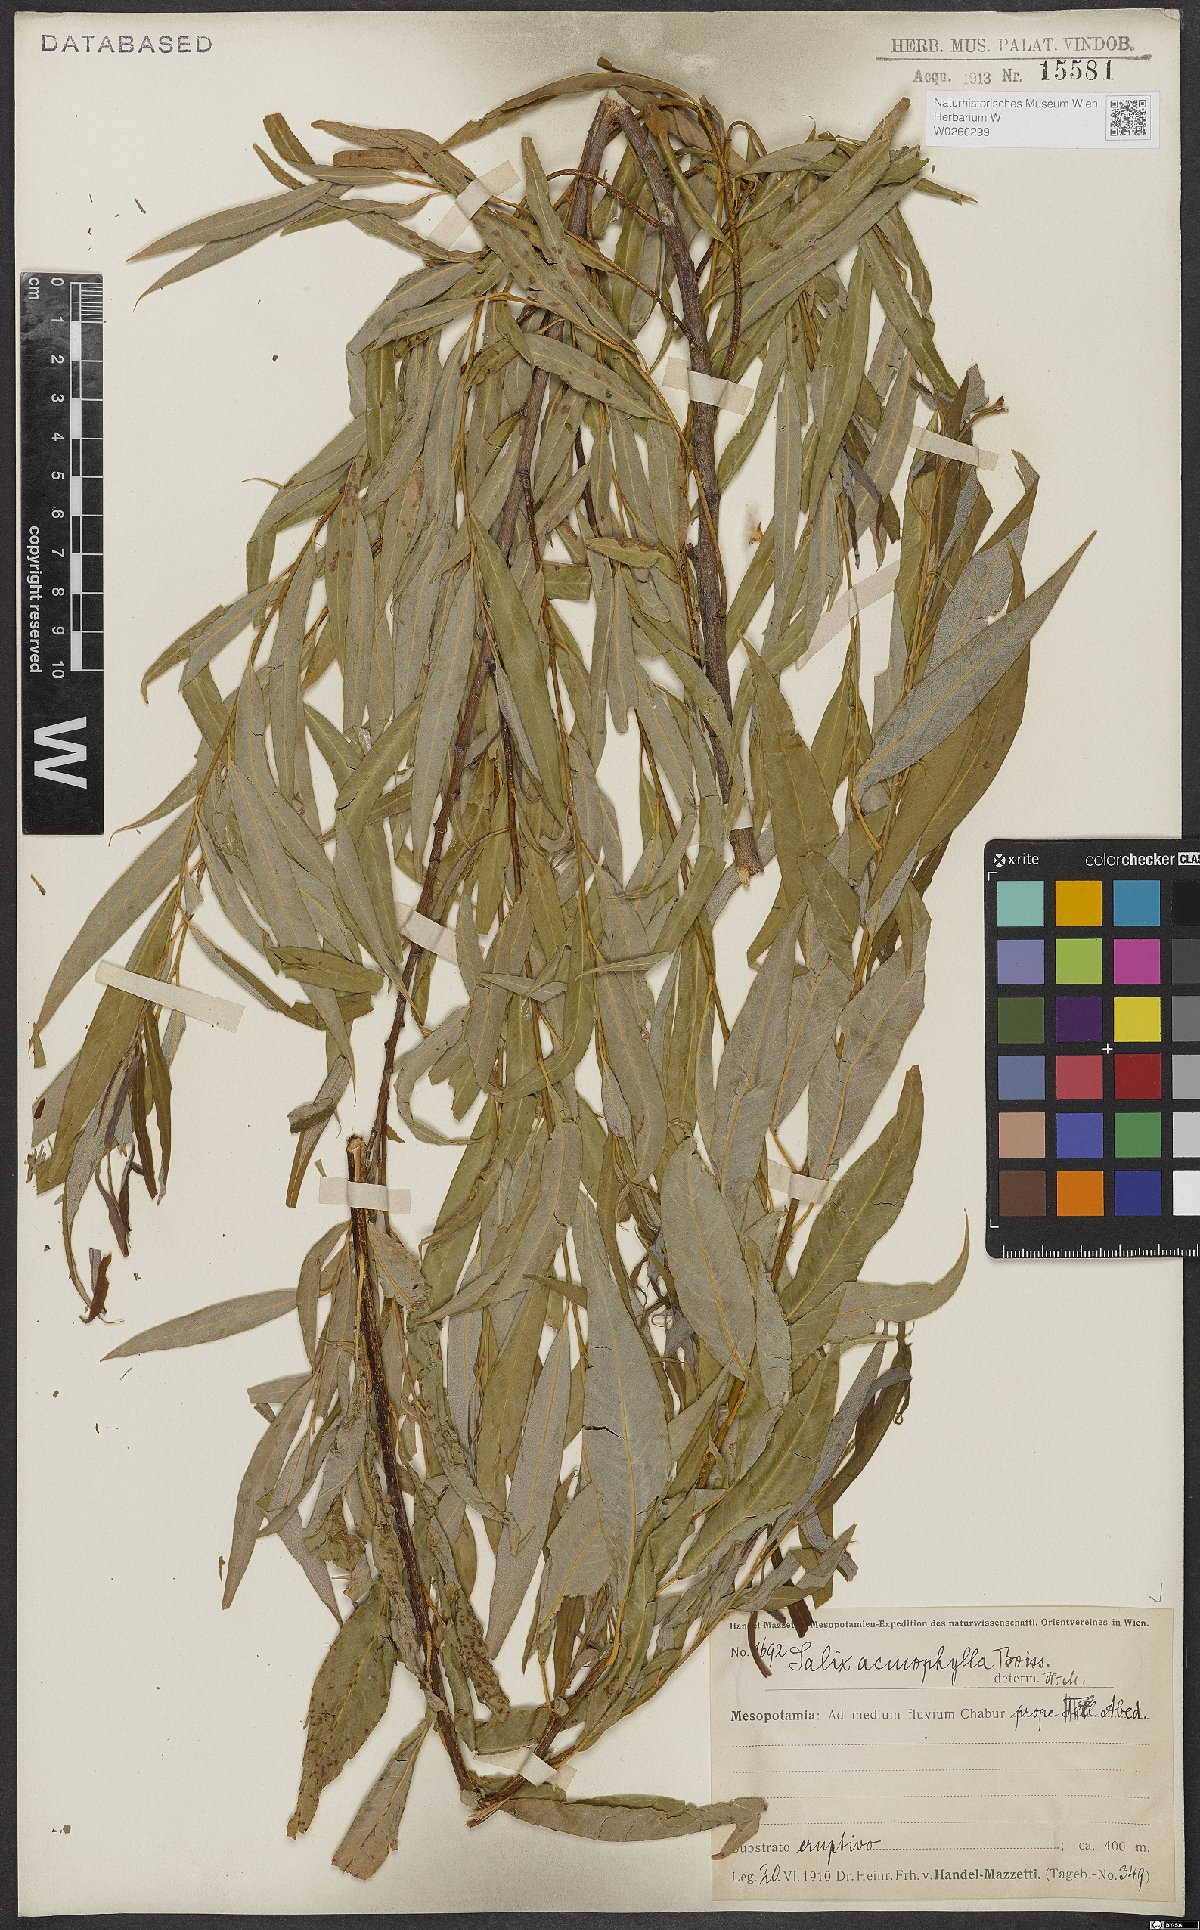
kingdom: Plantae
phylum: Tracheophyta
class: Magnoliopsida
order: Malpighiales
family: Salicaceae
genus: Salix
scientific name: Salix acmophylla
